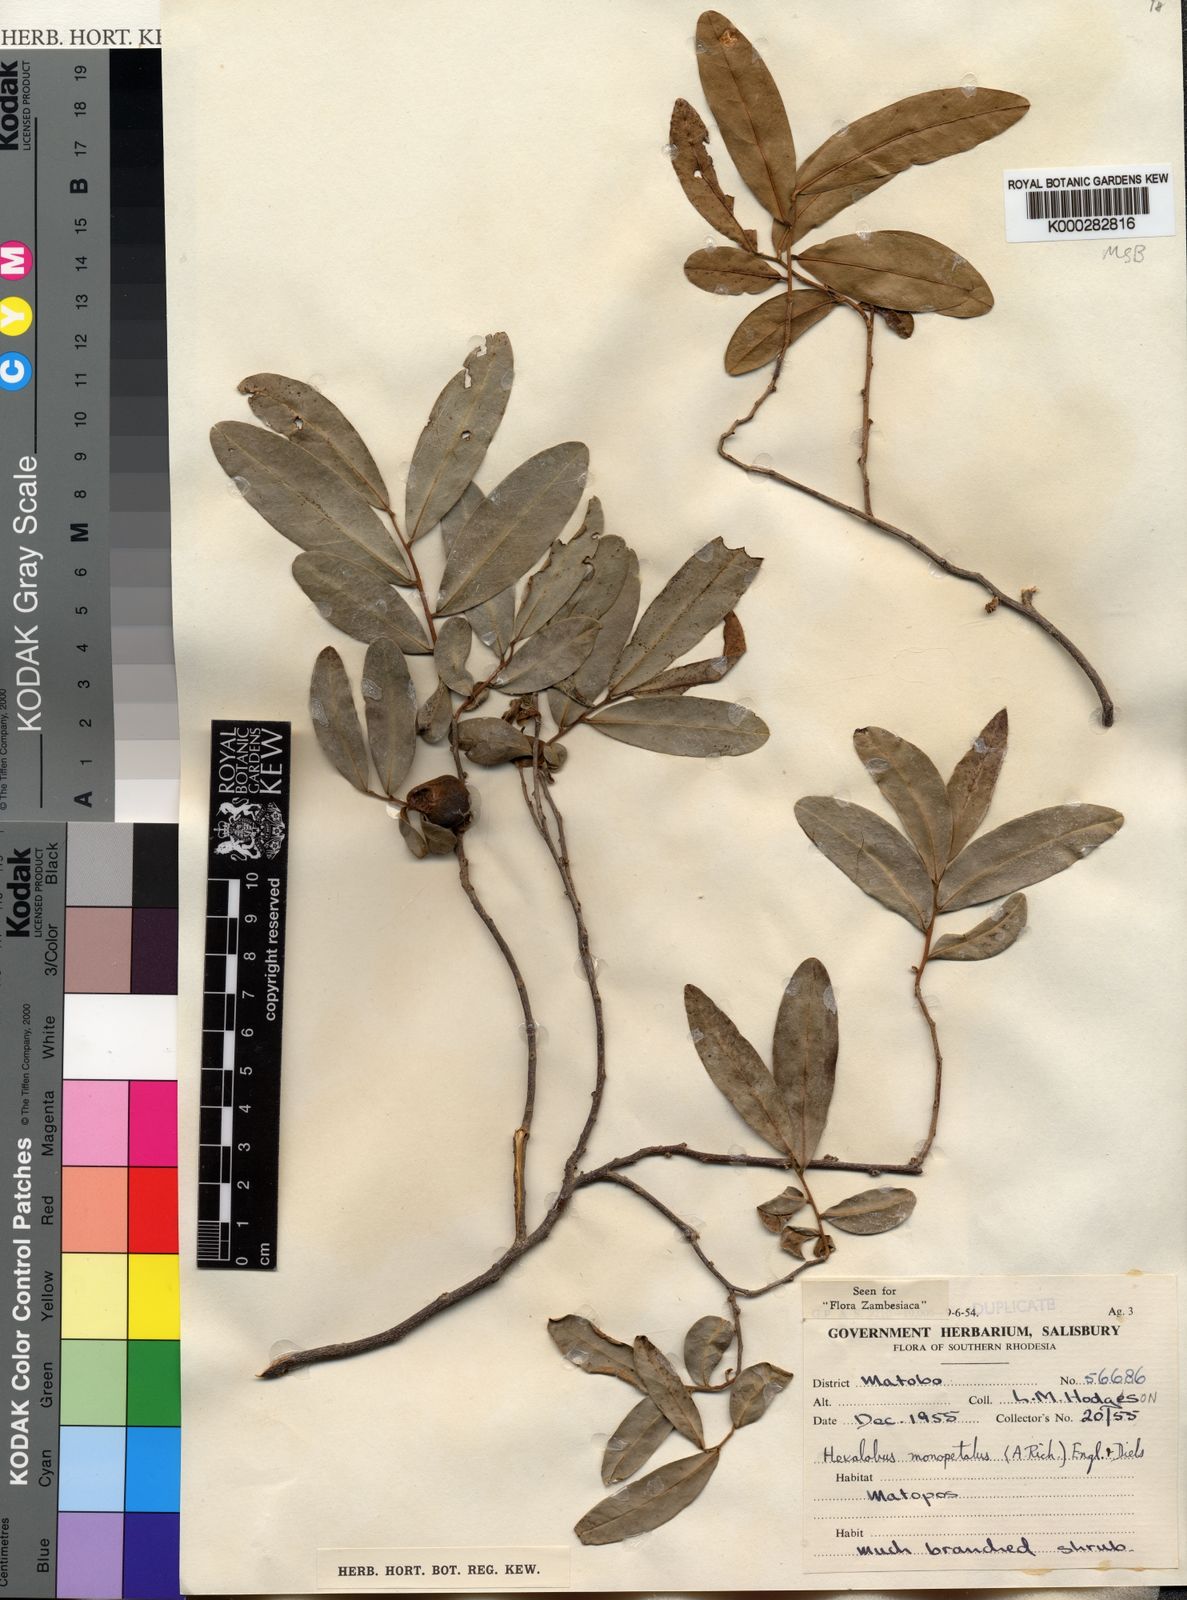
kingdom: Plantae
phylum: Tracheophyta
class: Magnoliopsida
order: Magnoliales
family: Annonaceae
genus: Hexalobus
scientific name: Hexalobus monopetalus
